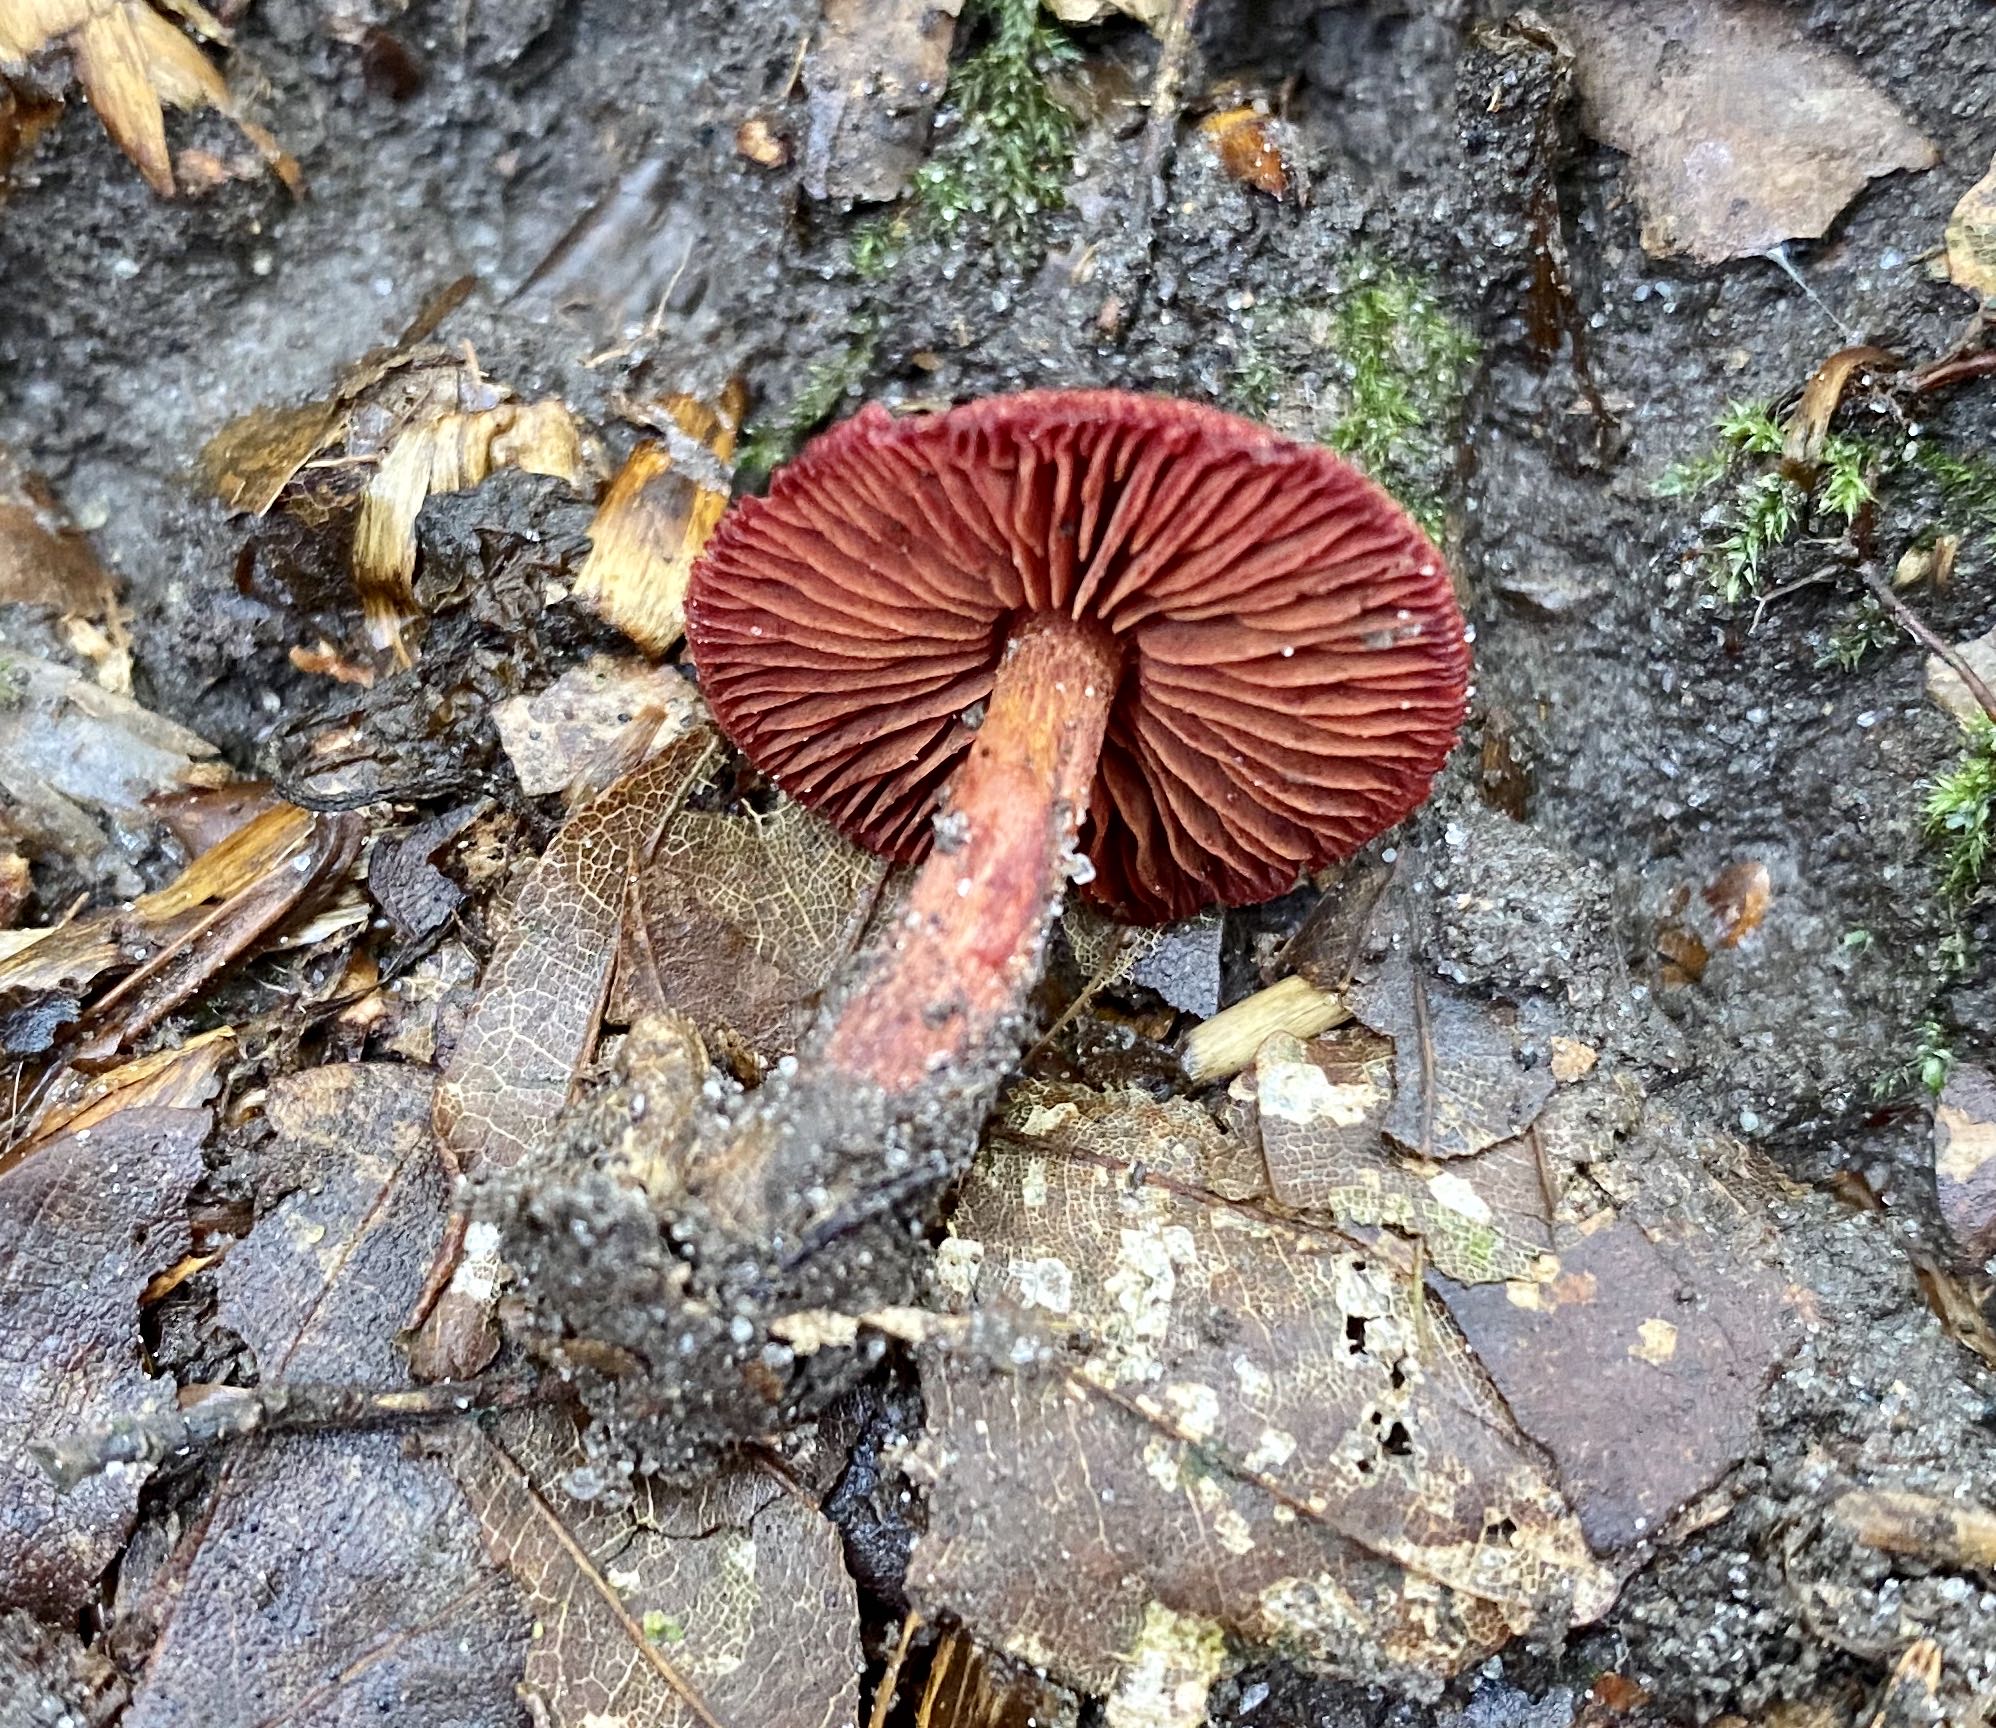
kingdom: Fungi
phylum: Basidiomycota
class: Agaricomycetes
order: Agaricales
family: Cortinariaceae
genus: Cortinarius
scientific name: Cortinarius sanguineus
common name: Bloodred webcap
